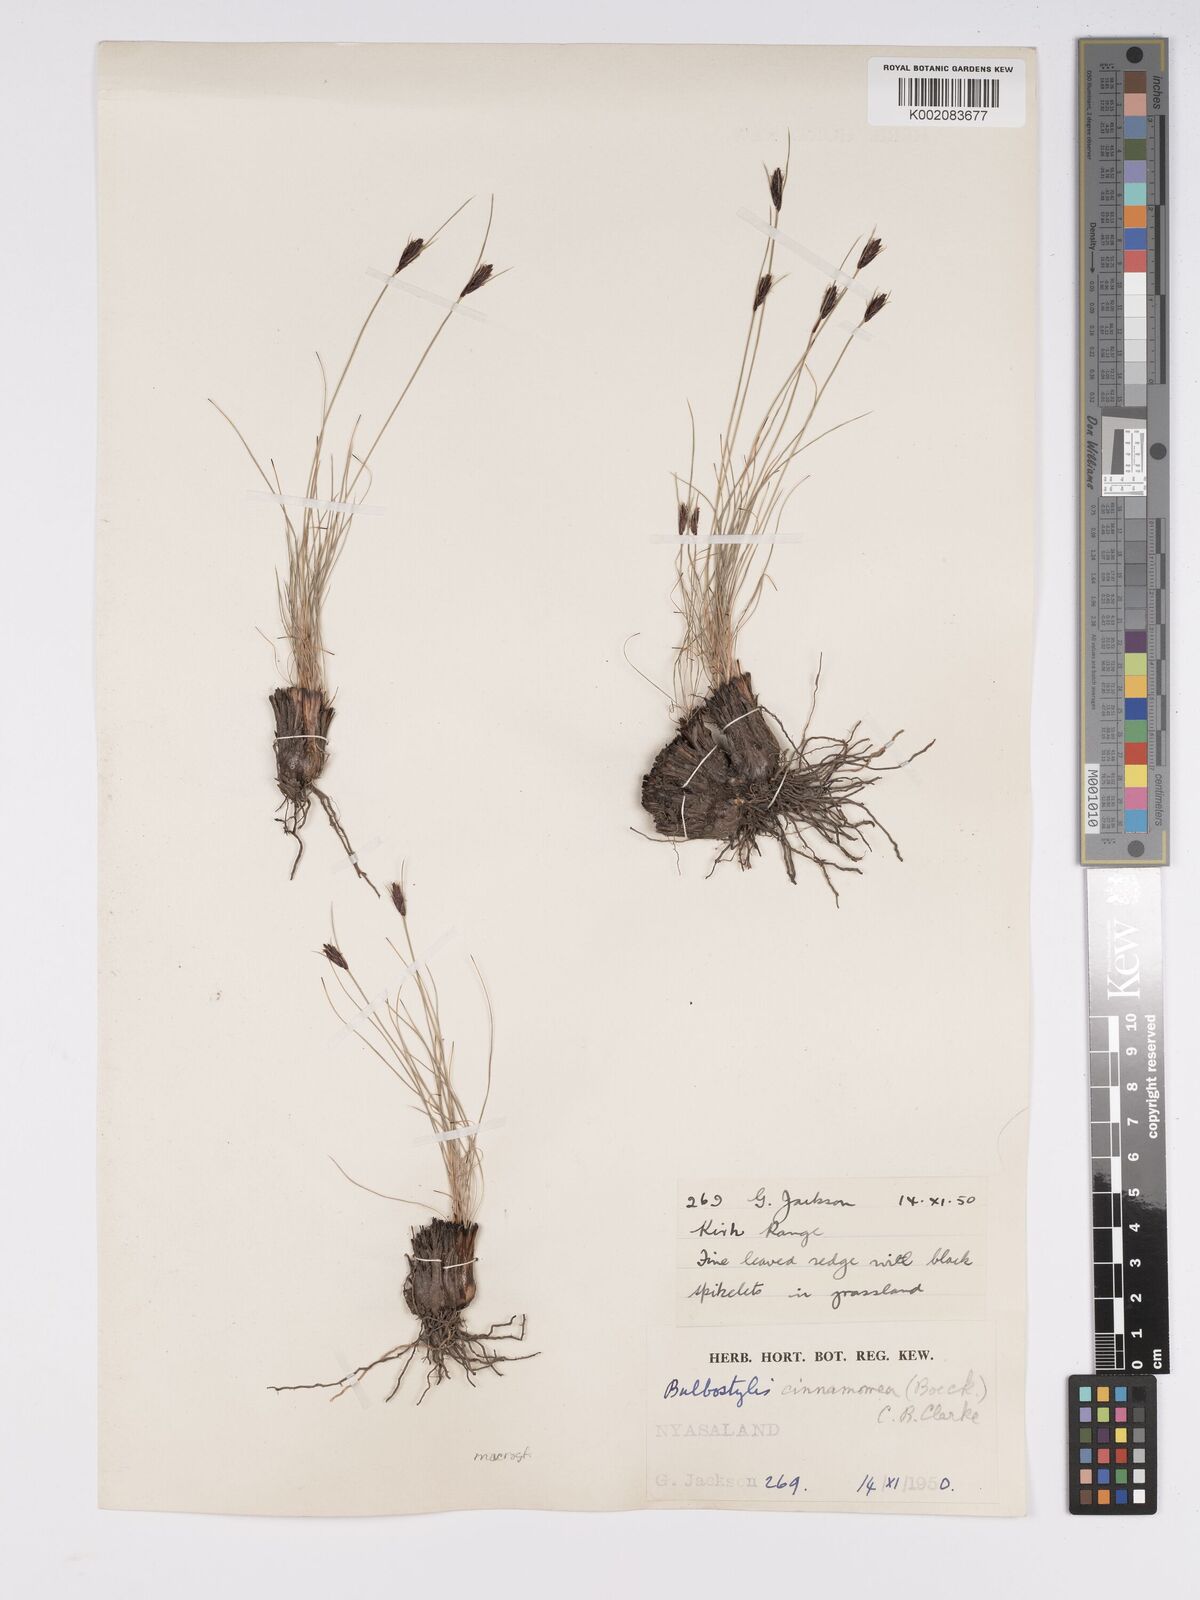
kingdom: Plantae
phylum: Tracheophyta
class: Liliopsida
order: Poales
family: Cyperaceae
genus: Bulbostylis
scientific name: Bulbostylis macra
